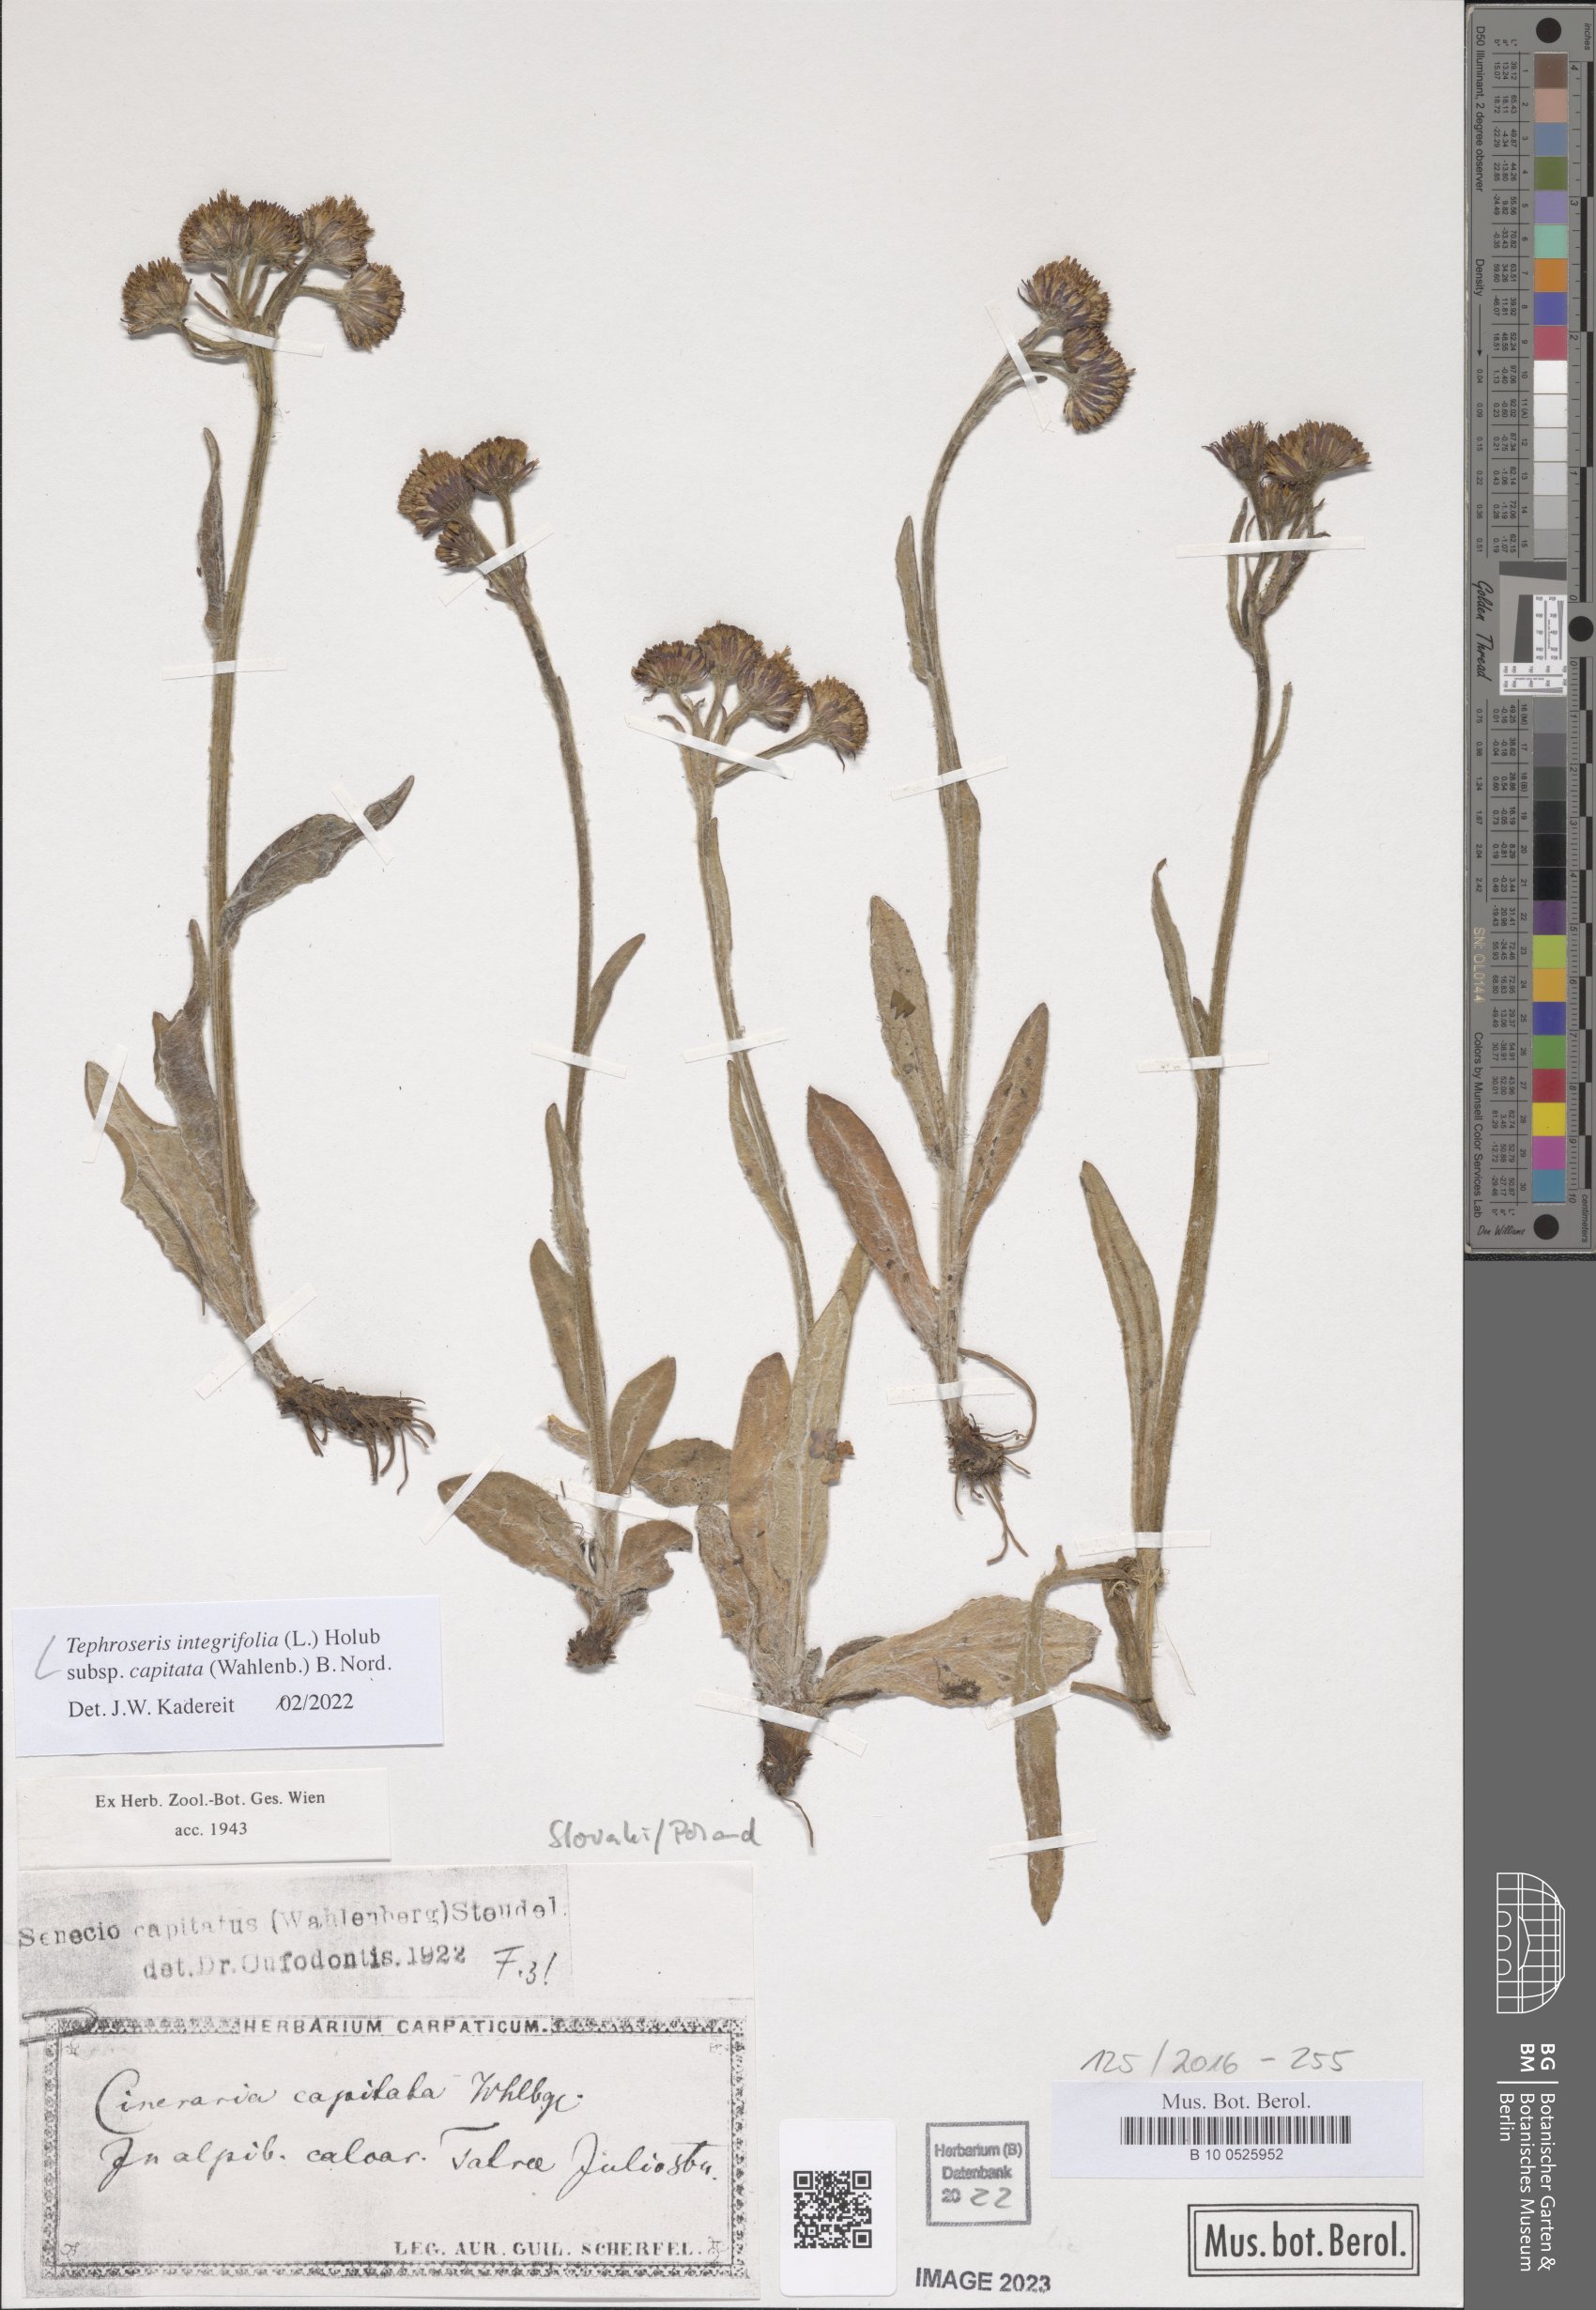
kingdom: Plantae
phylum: Tracheophyta
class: Magnoliopsida
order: Asterales
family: Asteraceae
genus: Tephroseris
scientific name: Tephroseris integrifolia
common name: Field fleawort
